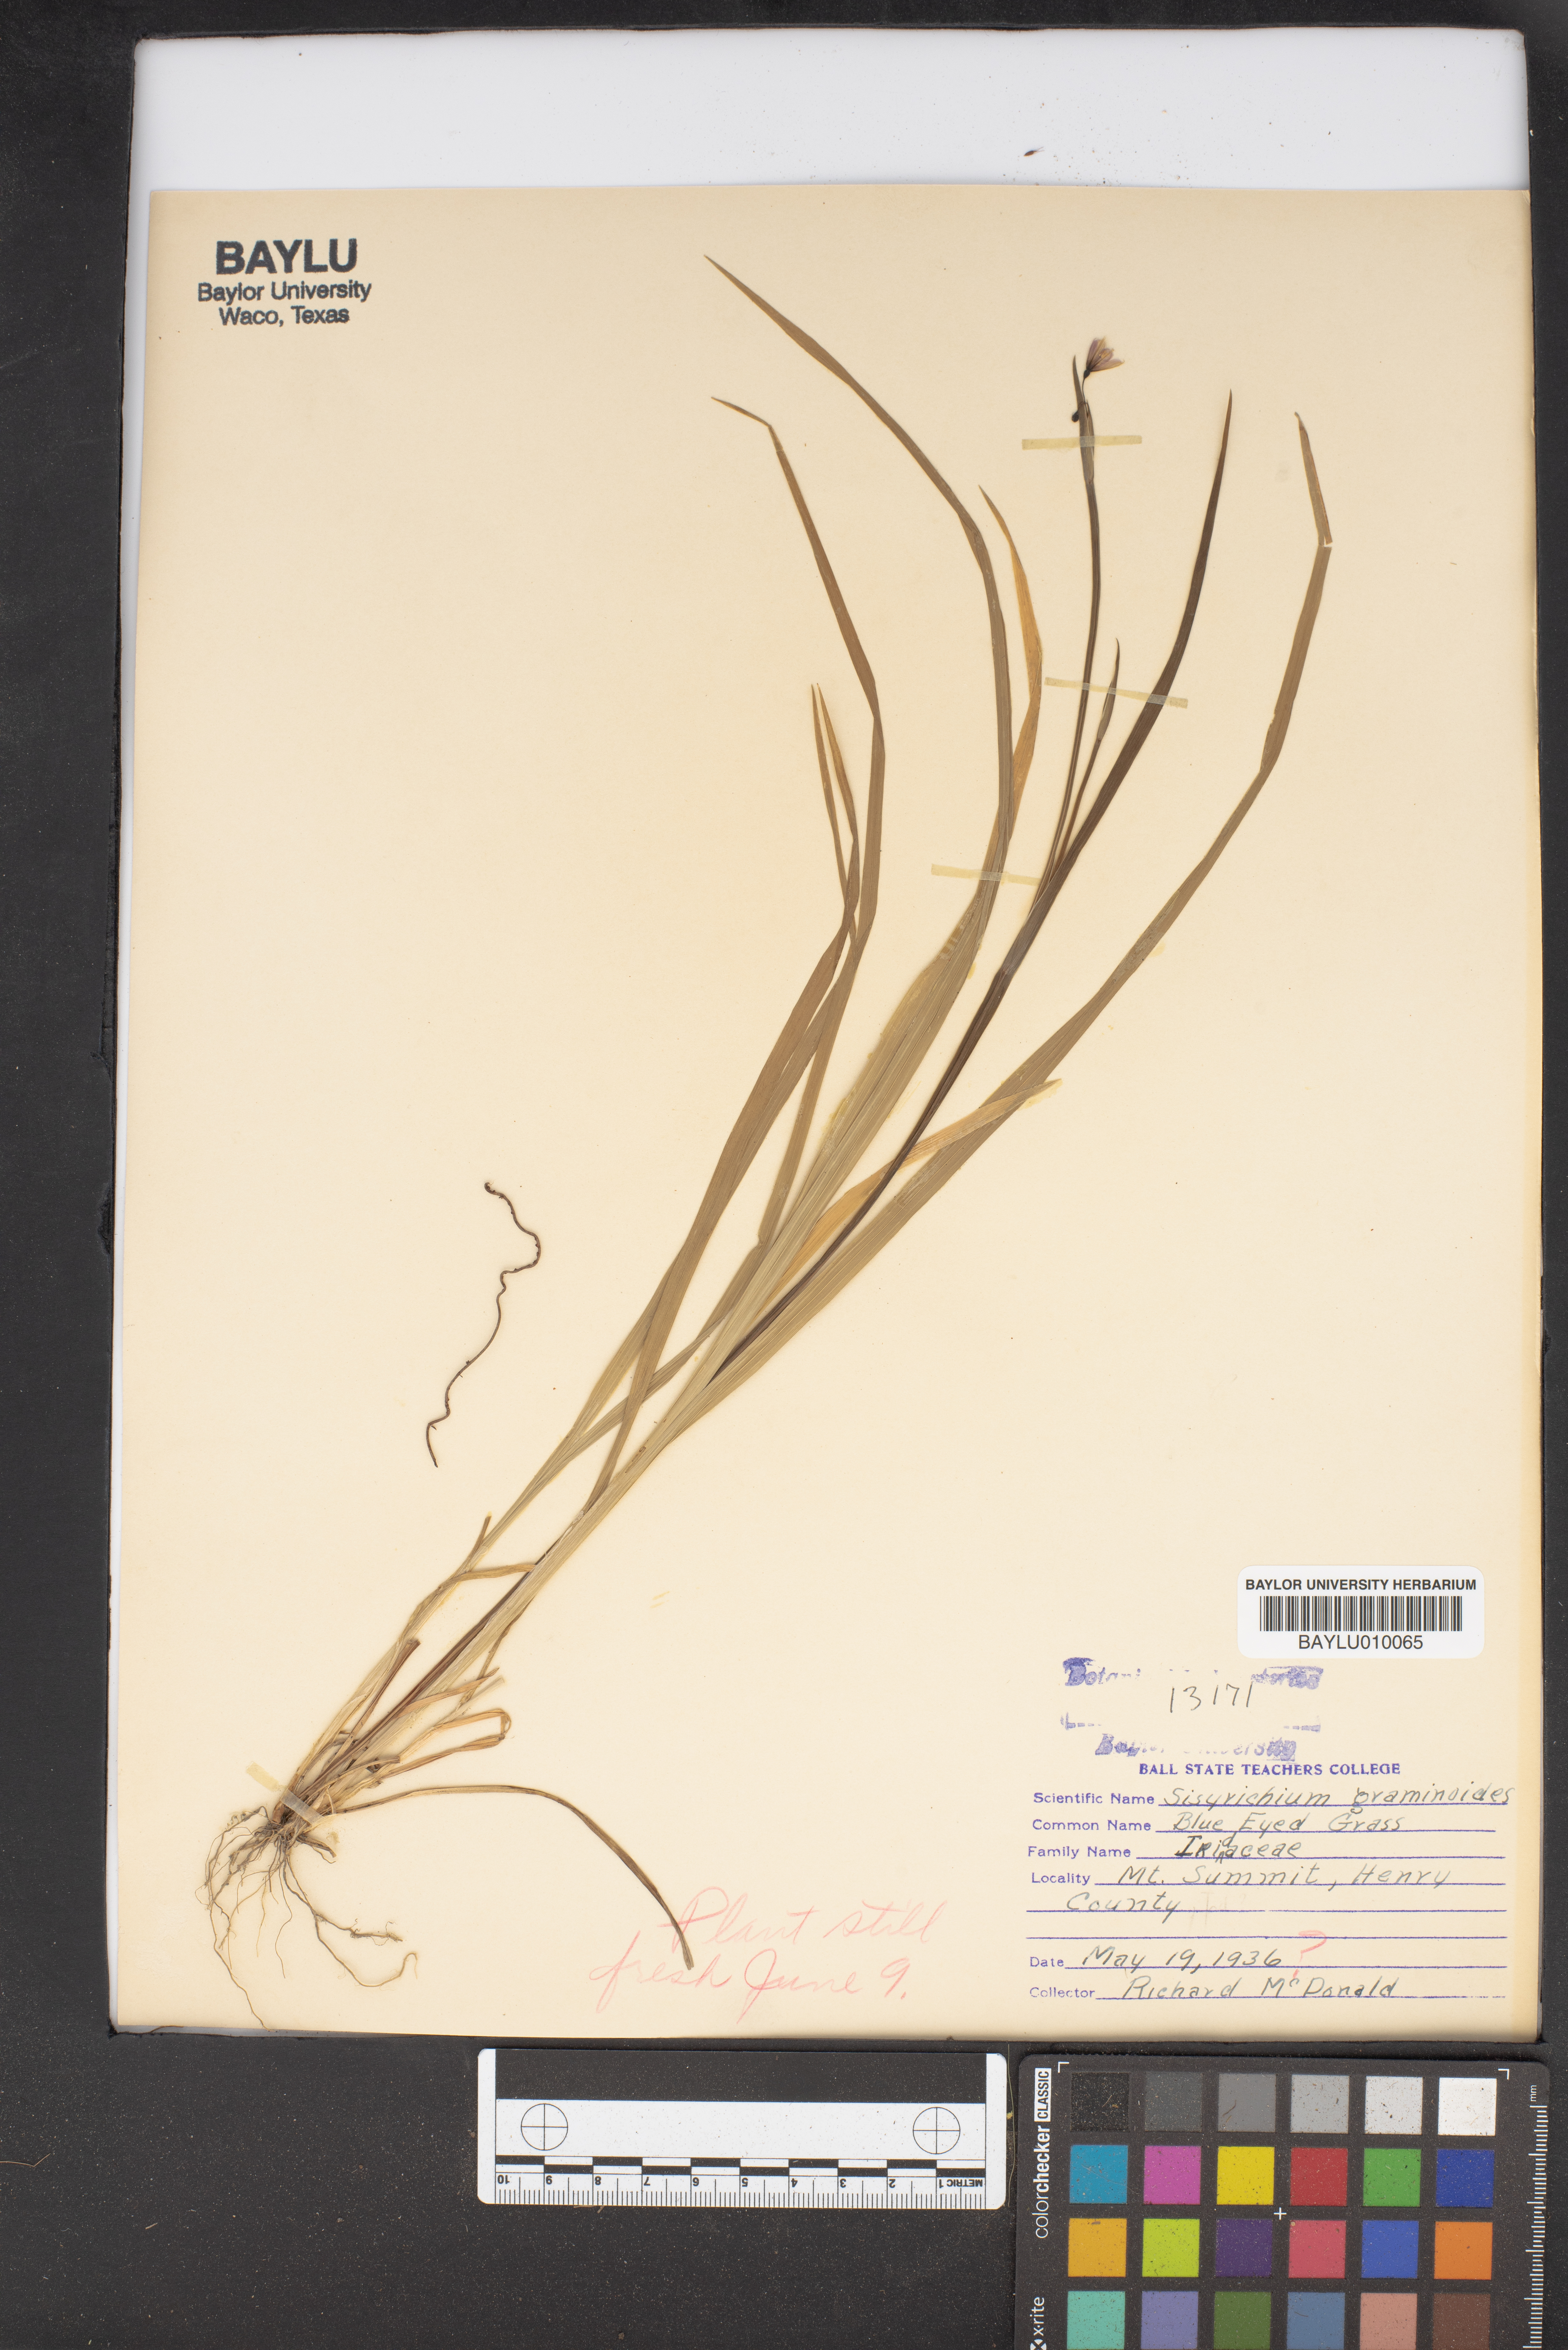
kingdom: Plantae
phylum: Tracheophyta
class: Liliopsida
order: Asparagales
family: Iridaceae
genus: Sisyrinchium
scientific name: Sisyrinchium angustifolium
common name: Narrow-leaf blue-eyed-grass
